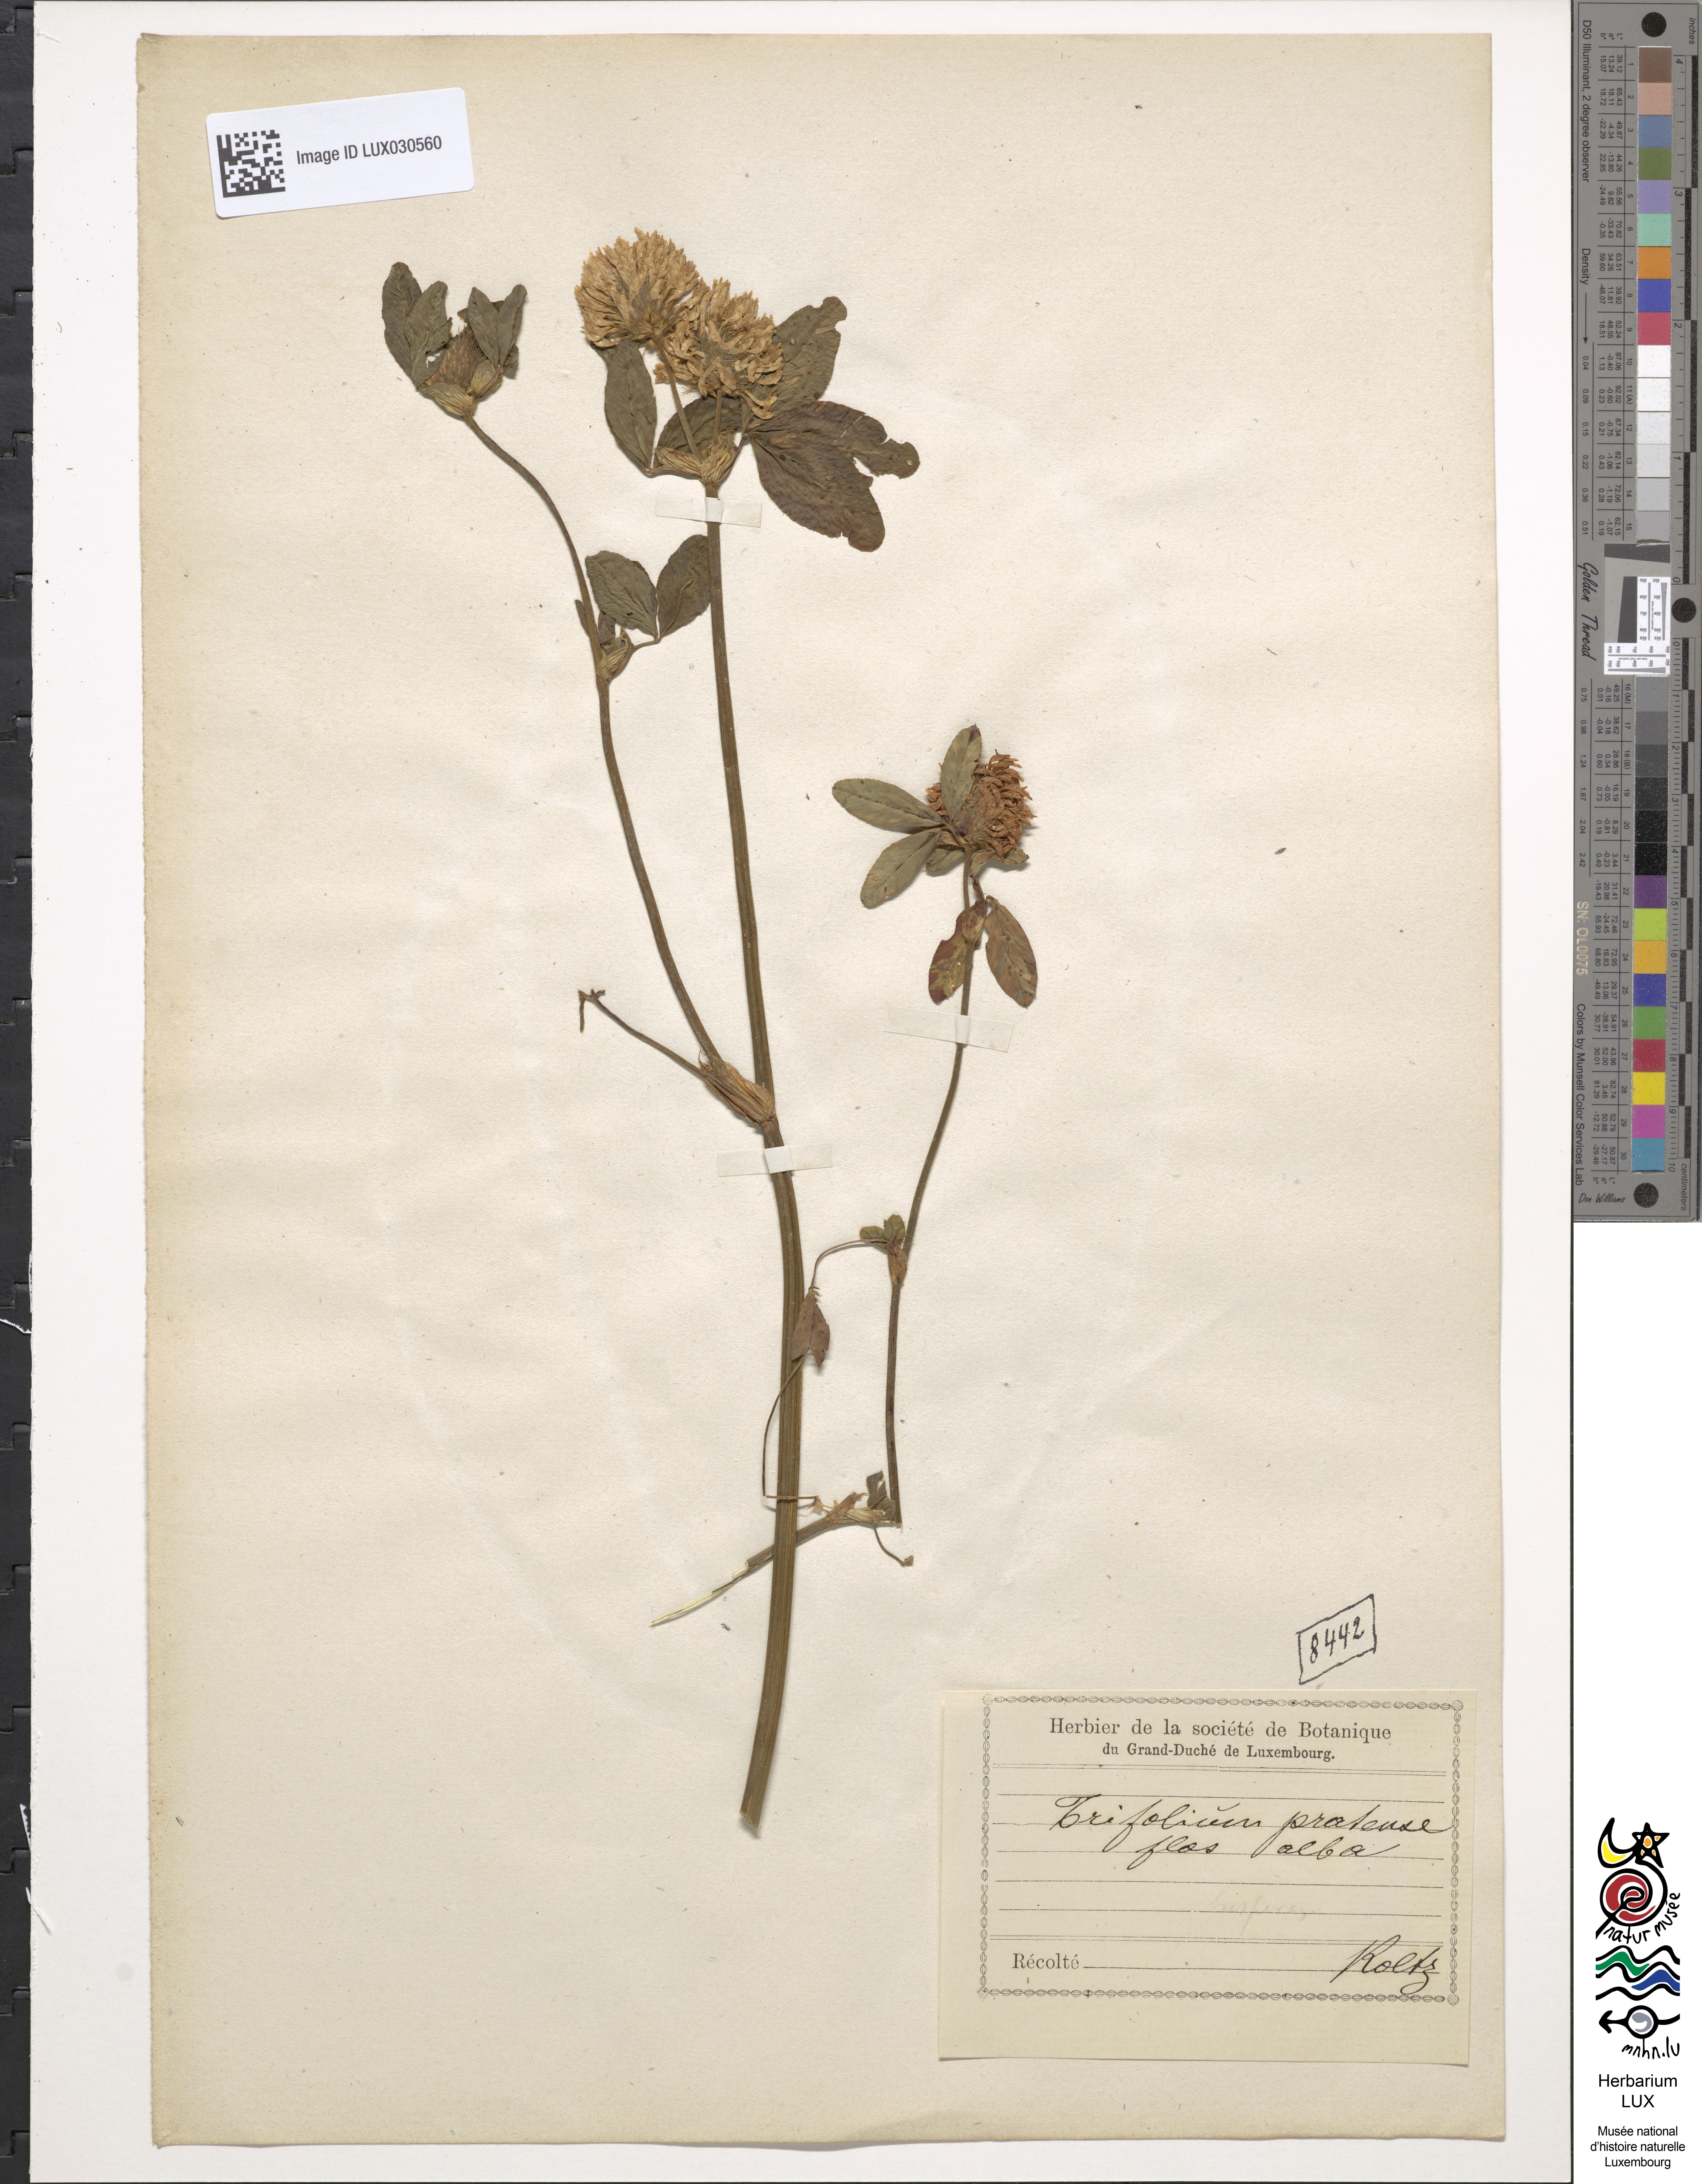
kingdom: Plantae
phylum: Tracheophyta
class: Magnoliopsida
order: Fabales
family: Fabaceae
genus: Trifolium
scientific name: Trifolium pratense
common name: Red clover
